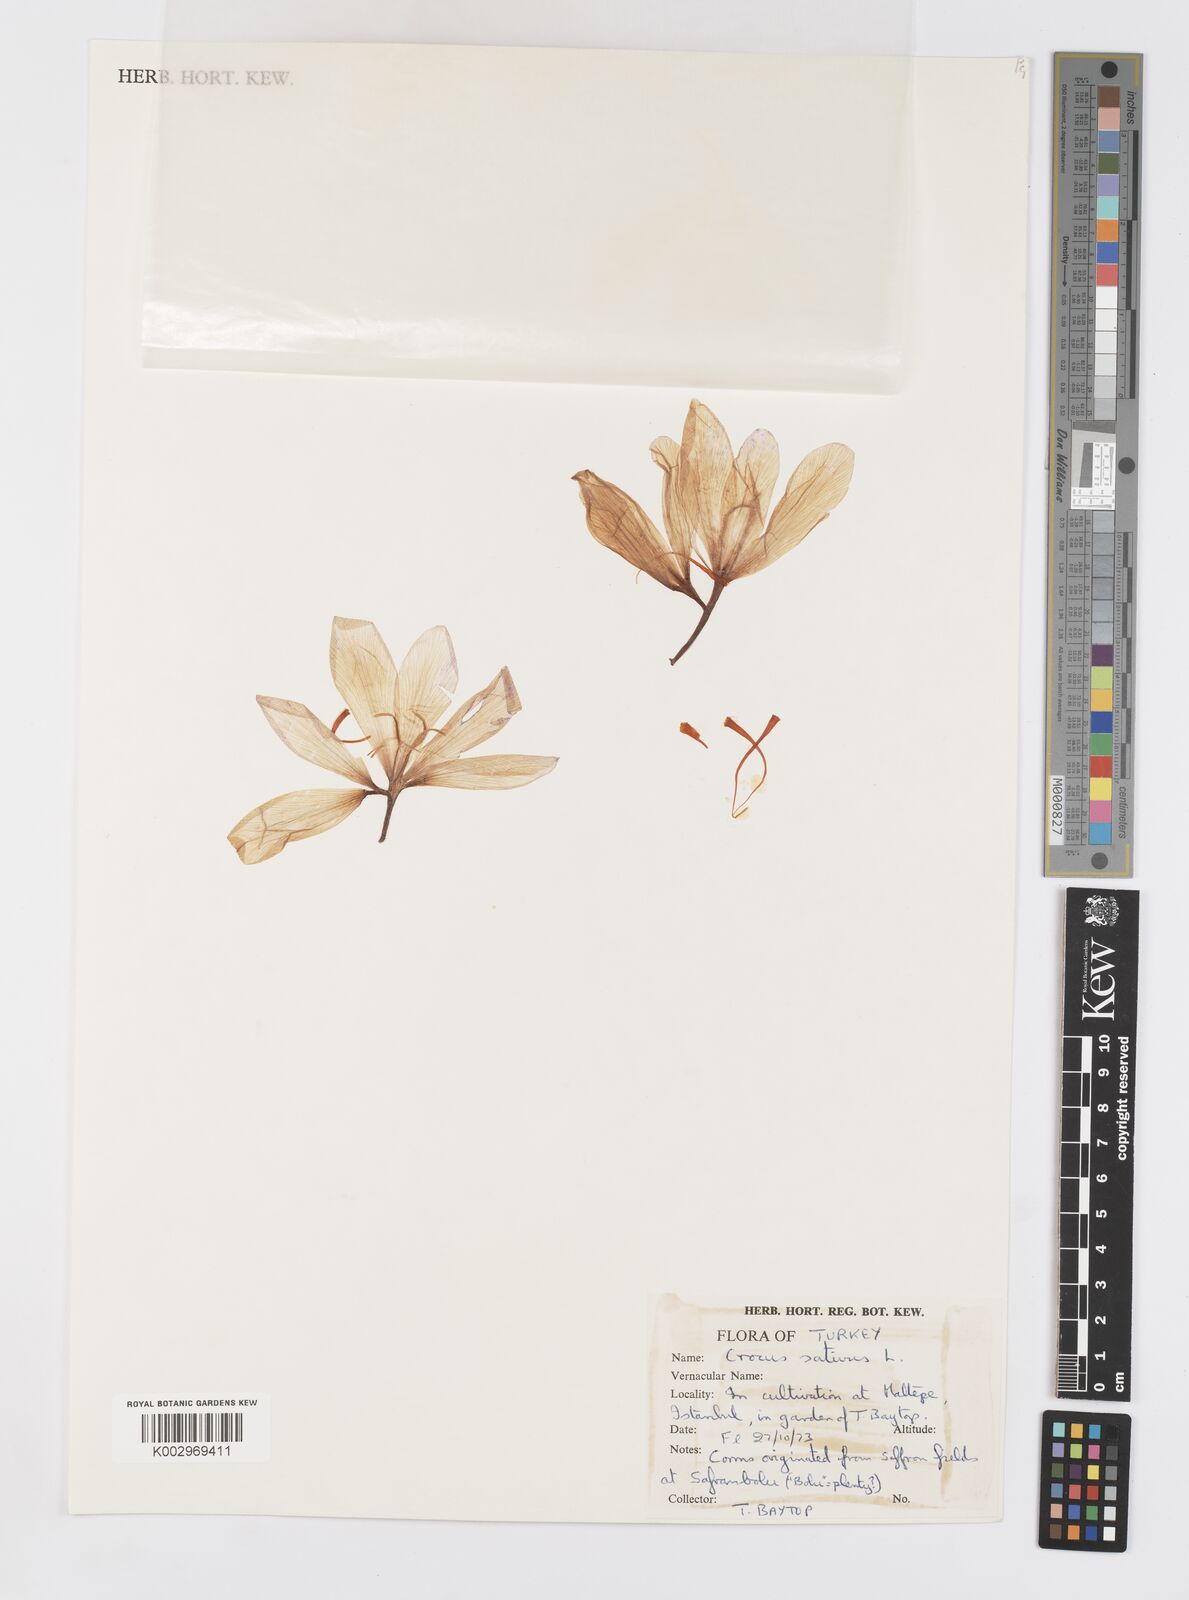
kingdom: Plantae
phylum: Tracheophyta
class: Liliopsida
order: Asparagales
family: Iridaceae
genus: Crocus
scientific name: Crocus sativus
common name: Saffron crocus
